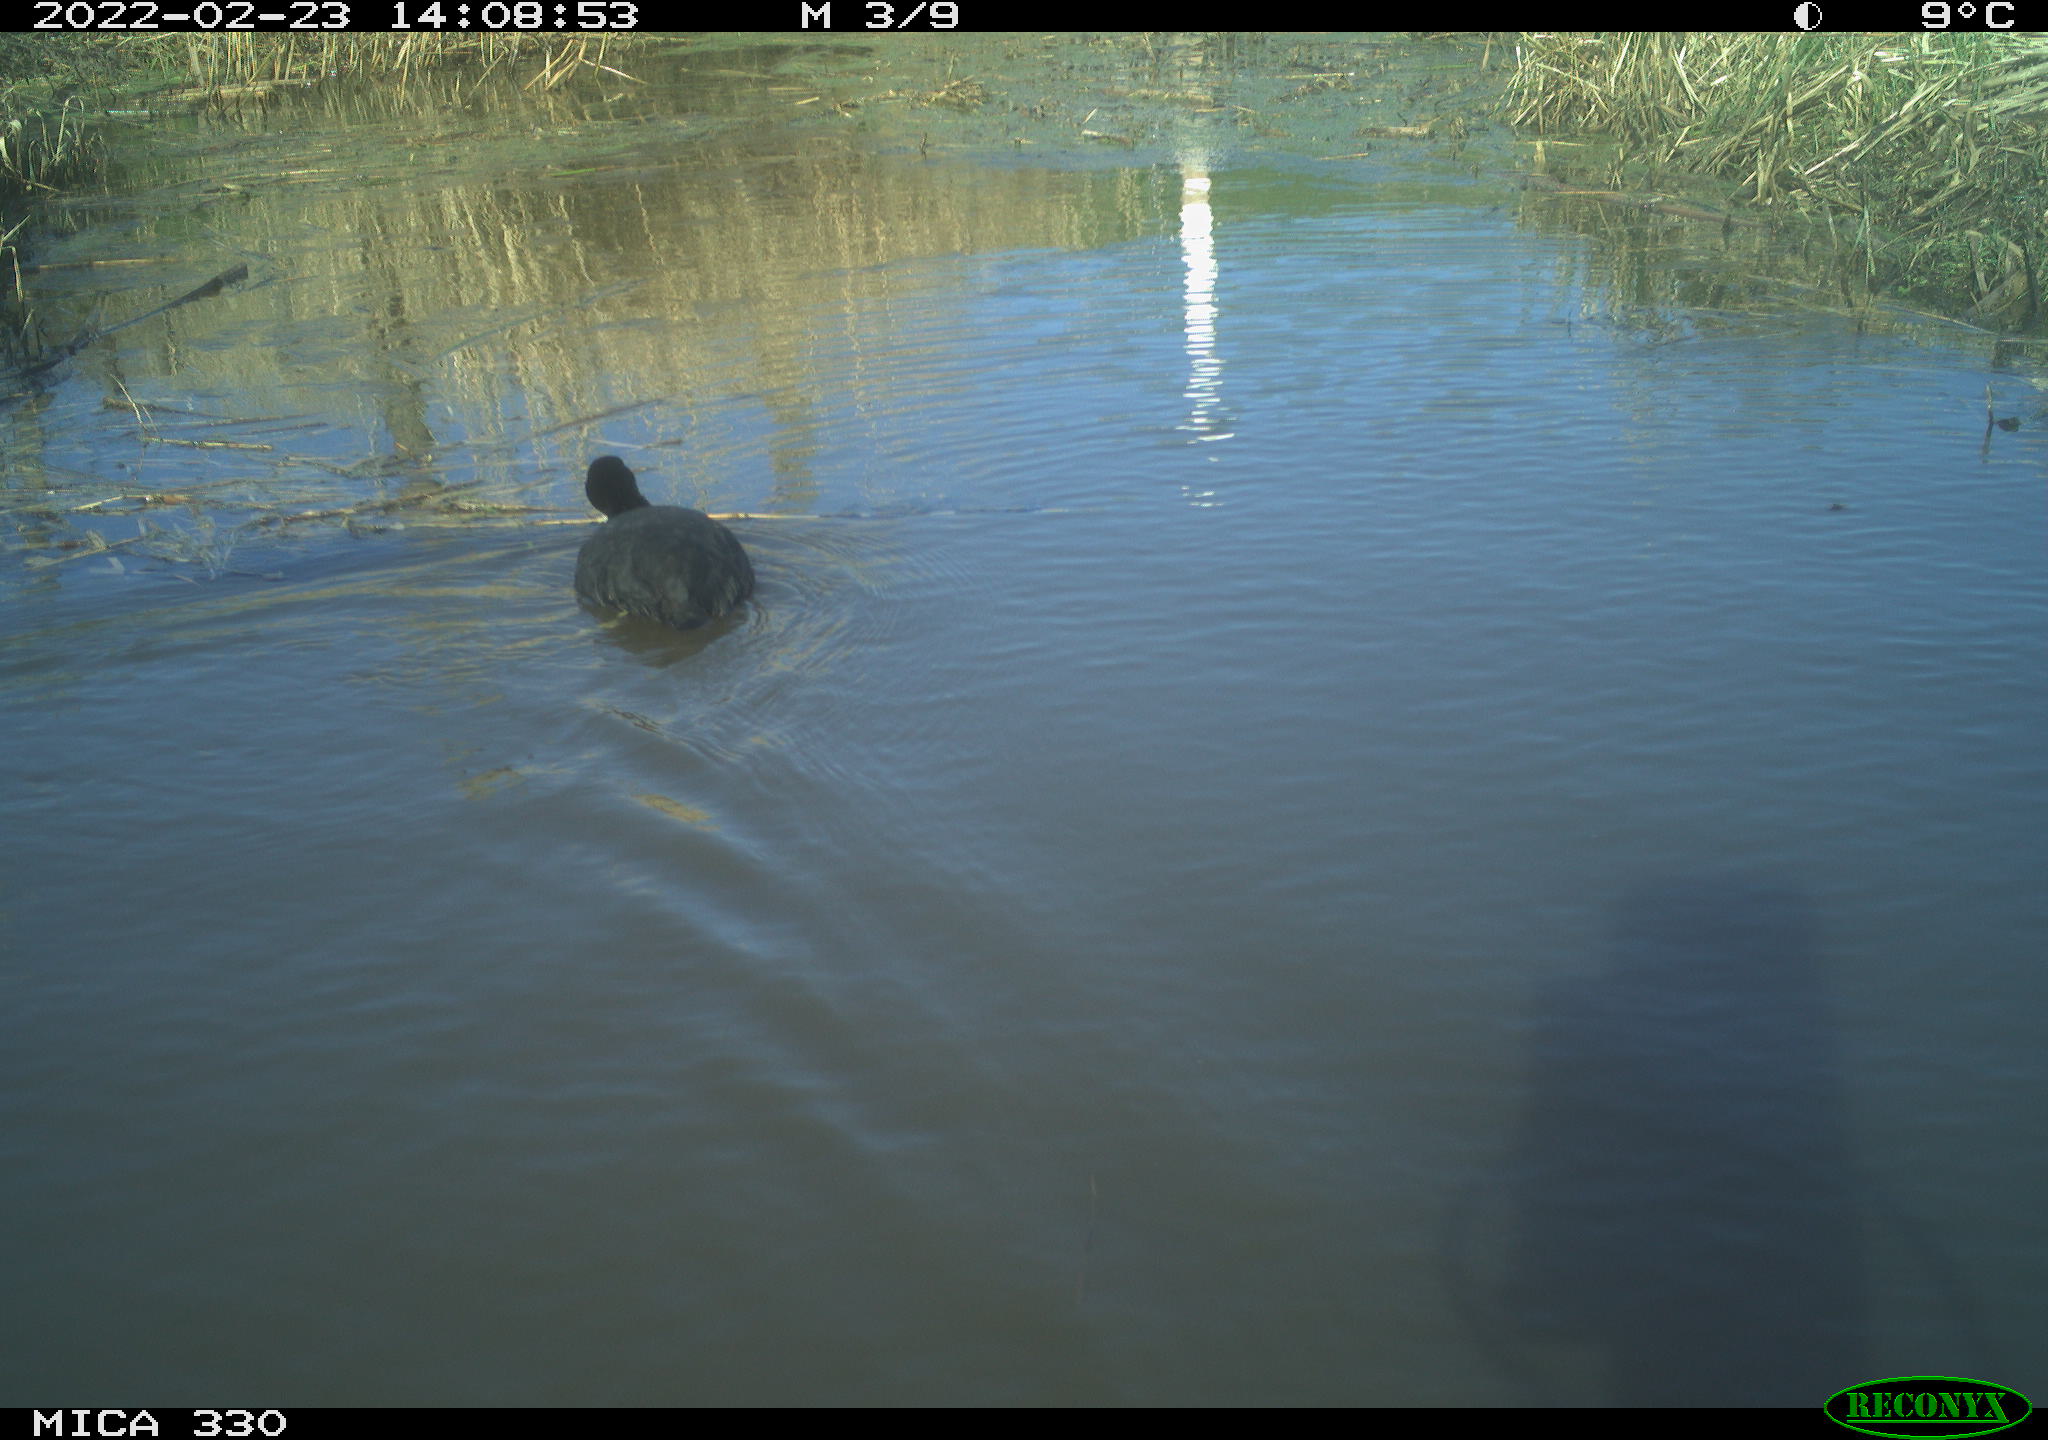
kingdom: Animalia
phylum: Chordata
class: Aves
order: Gruiformes
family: Rallidae
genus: Fulica
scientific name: Fulica atra
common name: Eurasian coot
